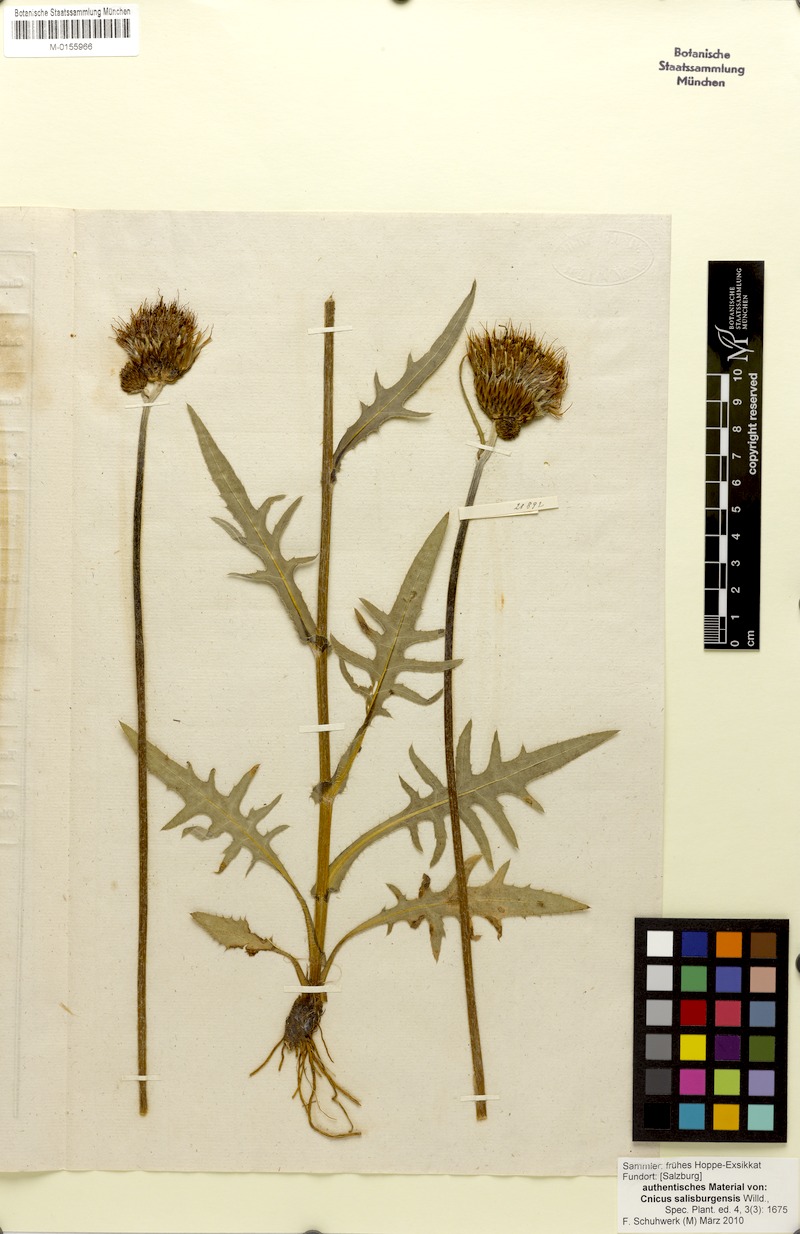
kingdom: Plantae
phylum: Tracheophyta
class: Magnoliopsida
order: Asterales
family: Asteraceae
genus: Cirsium
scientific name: Cirsium rivulare
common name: Brook thistle
